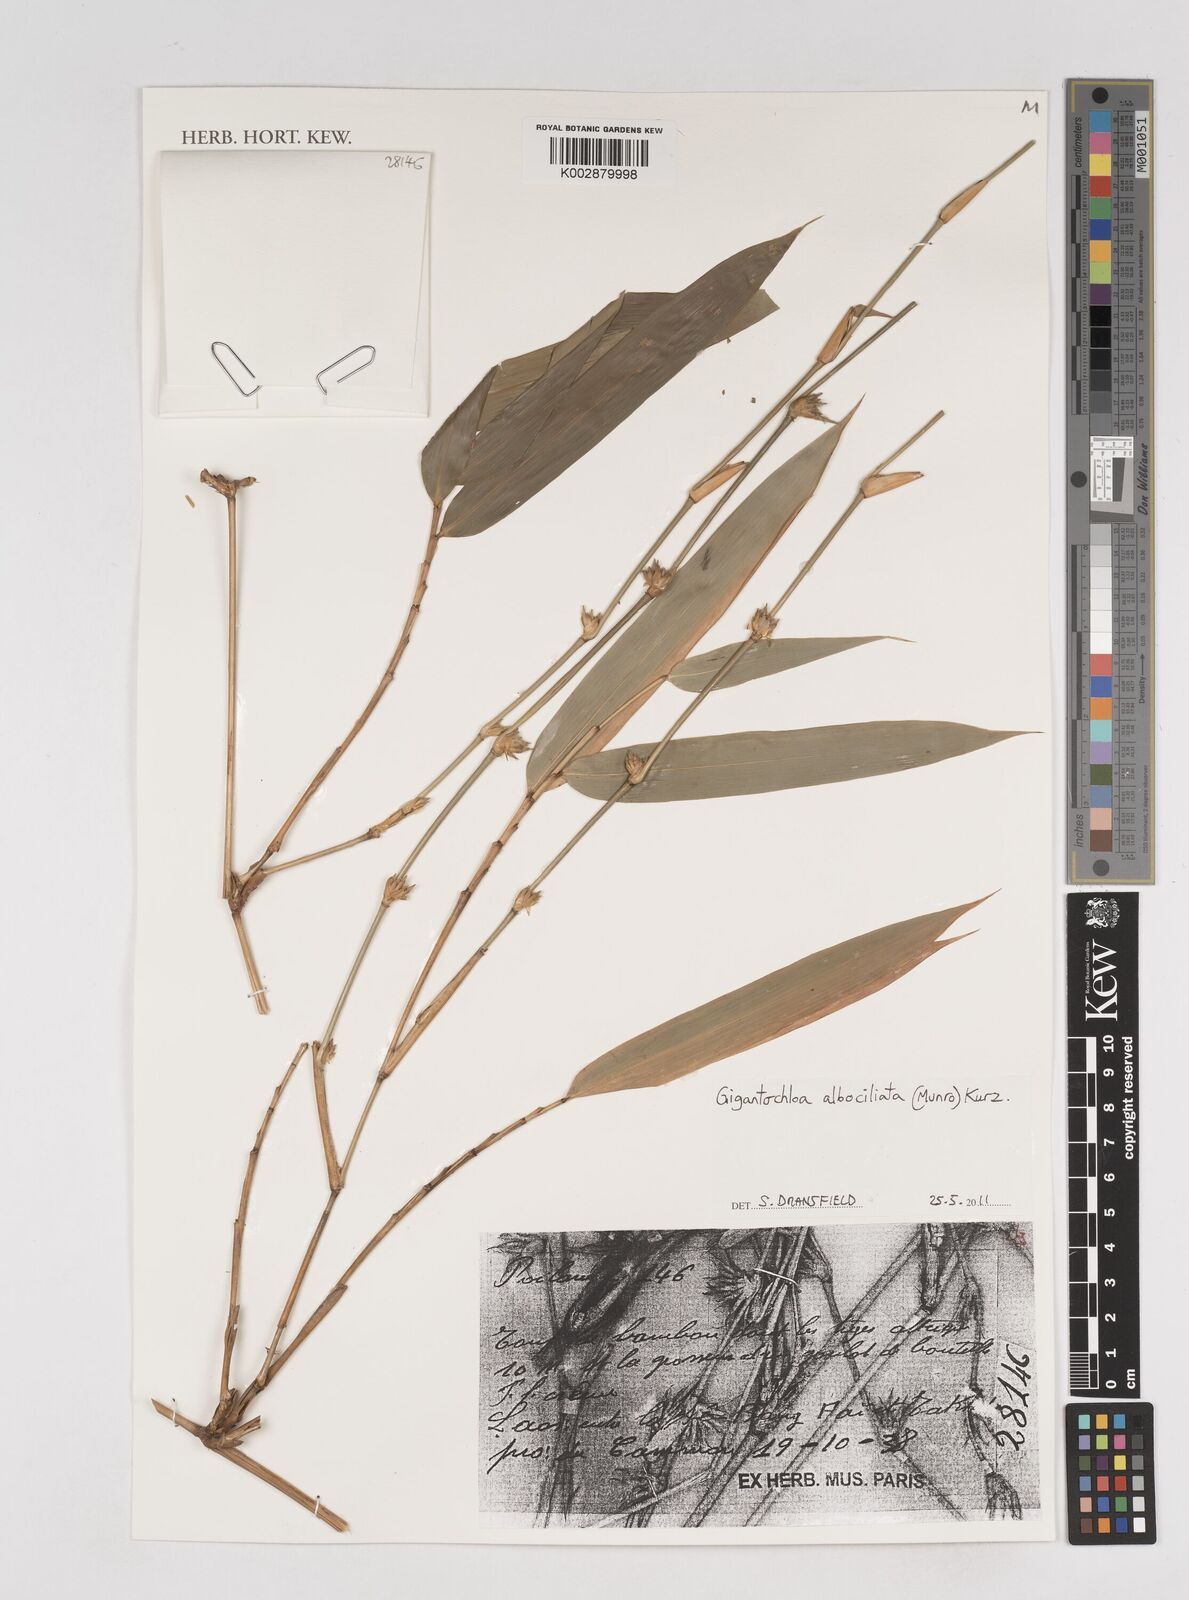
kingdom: Plantae
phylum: Tracheophyta
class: Liliopsida
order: Poales
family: Poaceae
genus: Gigantochloa
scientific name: Gigantochloa albociliata
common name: White-fringe gigantochloa
